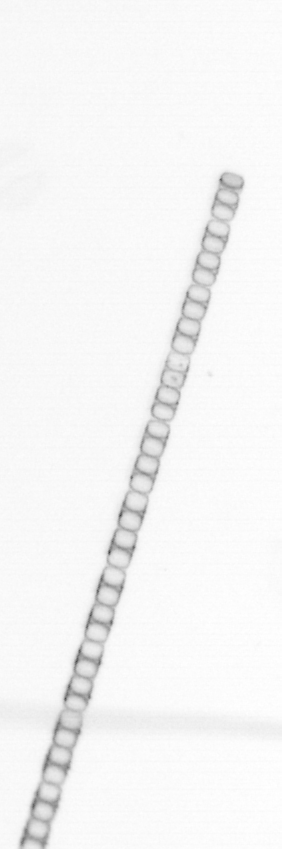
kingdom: Chromista
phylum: Ochrophyta
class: Bacillariophyceae
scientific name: Bacillariophyceae
